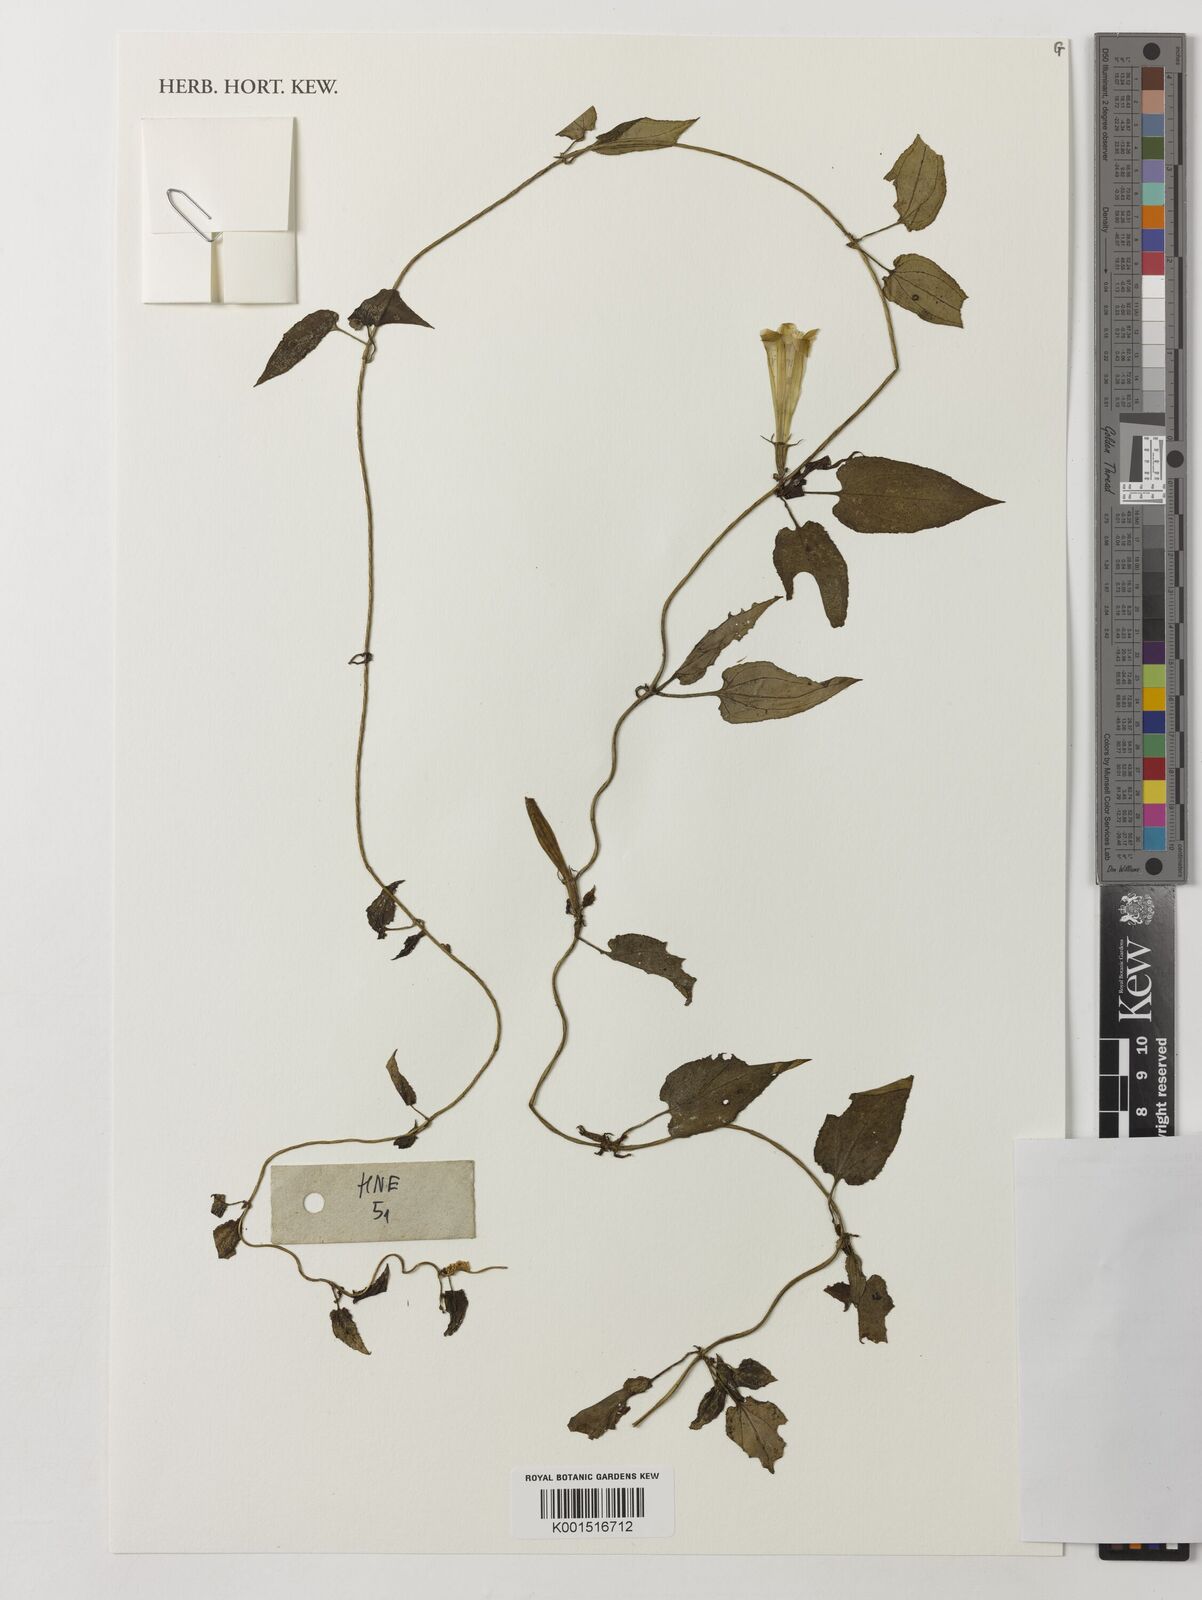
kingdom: Plantae
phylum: Tracheophyta
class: Magnoliopsida
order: Gentianales
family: Gentianaceae
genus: Crawfurdia
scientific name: Crawfurdia speciosa
